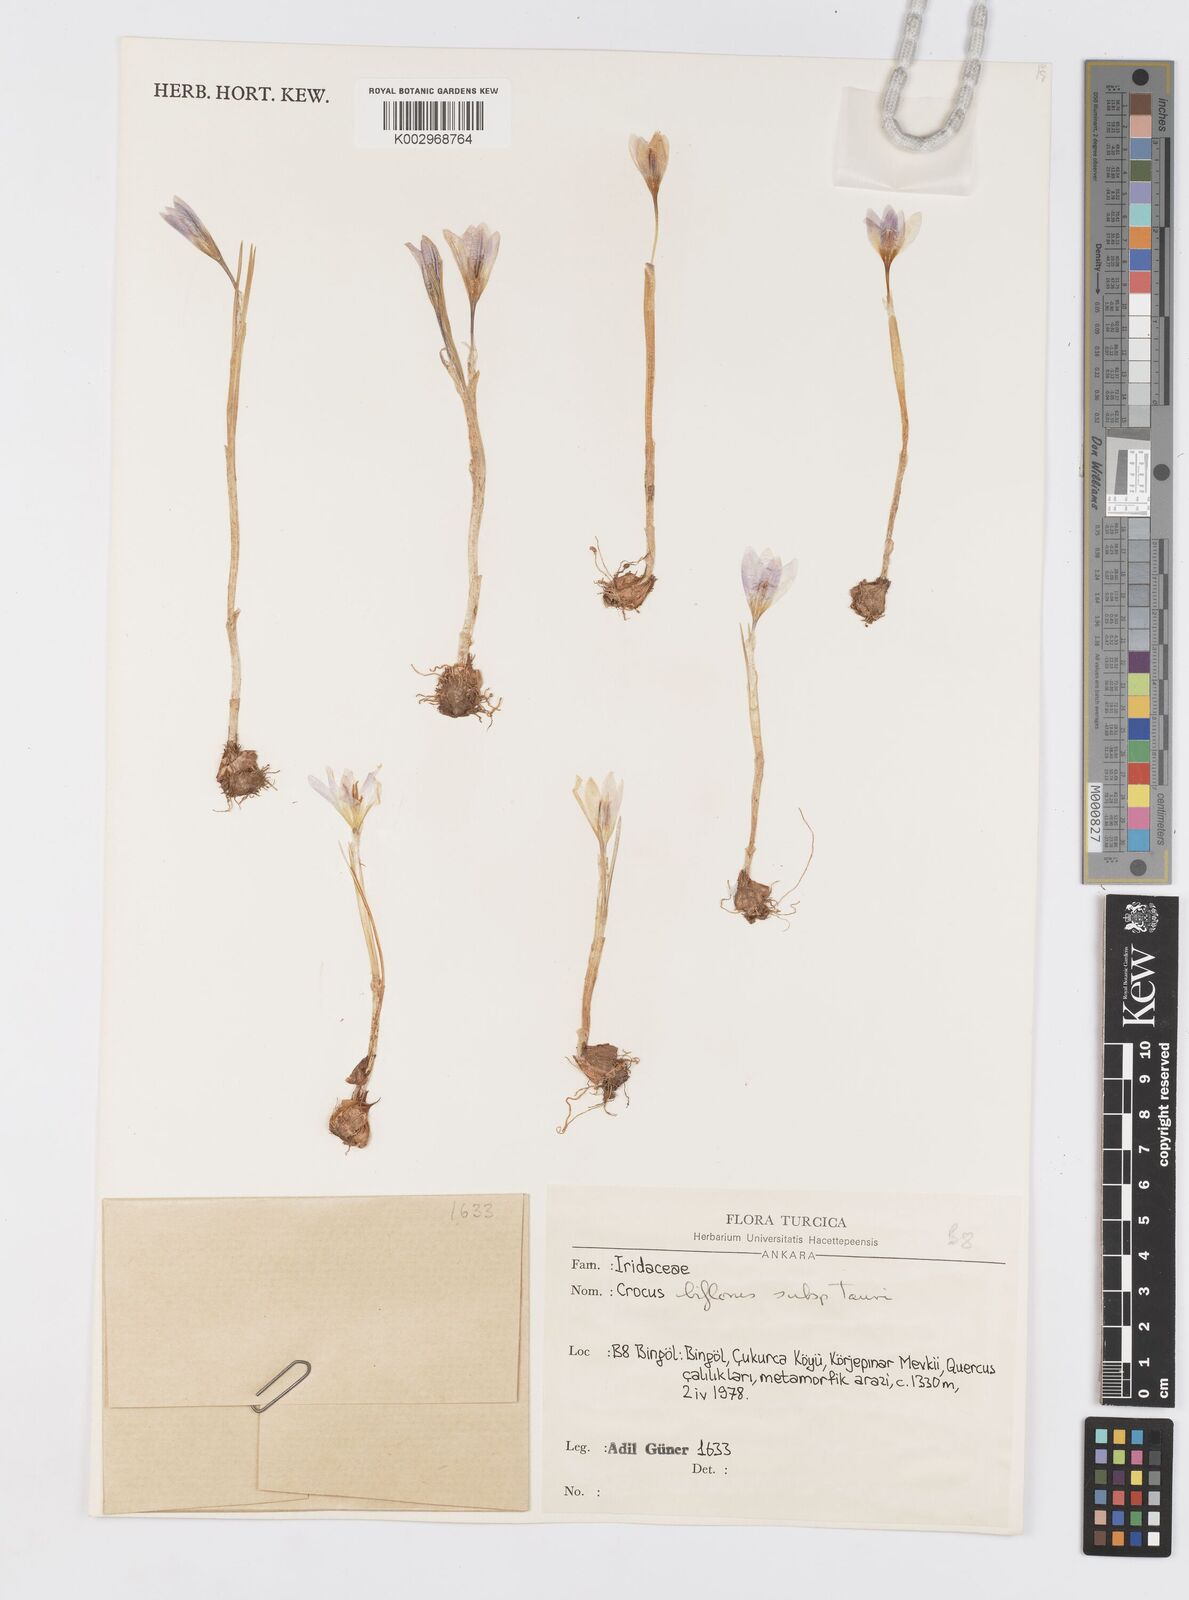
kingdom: Plantae
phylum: Tracheophyta
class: Liliopsida
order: Asparagales
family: Iridaceae
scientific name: Iridaceae
